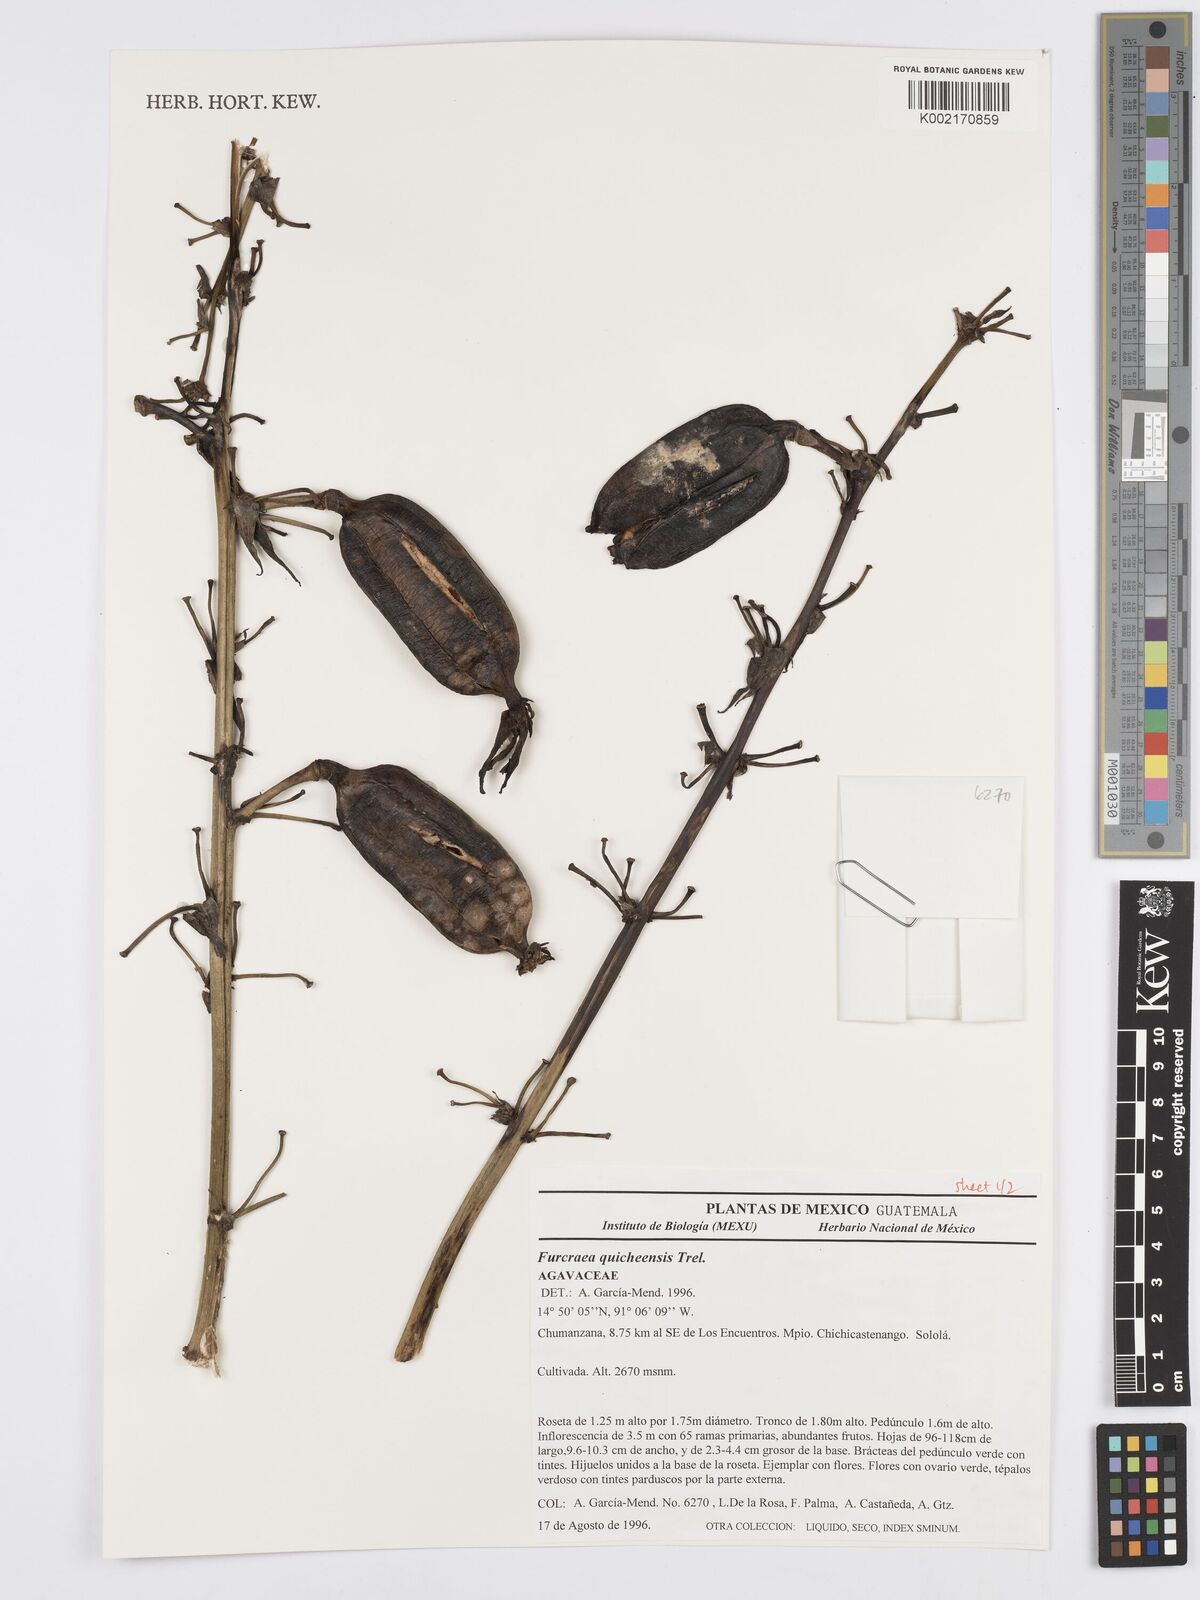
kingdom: Plantae
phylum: Tracheophyta
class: Liliopsida
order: Asparagales
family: Asparagaceae
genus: Furcraea
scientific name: Furcraea quicheensis
